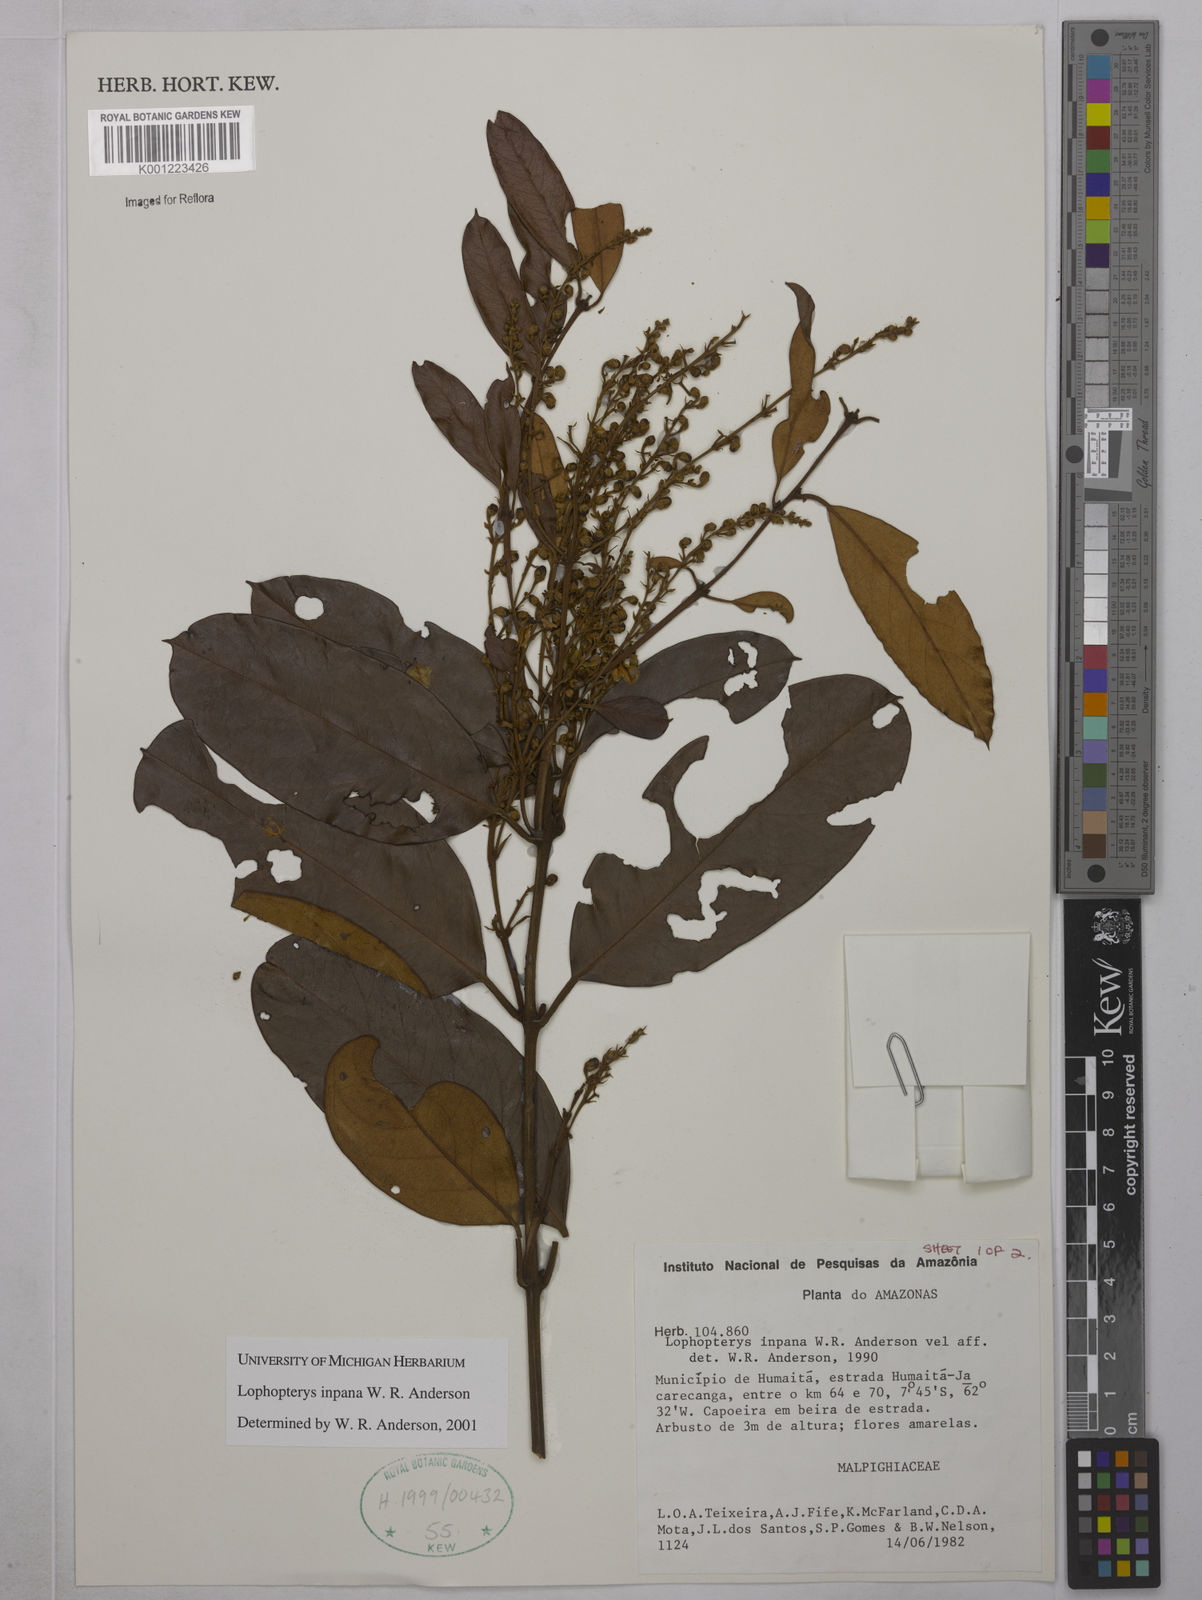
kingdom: Plantae
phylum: Tracheophyta
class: Magnoliopsida
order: Malpighiales
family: Malpighiaceae
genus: Lophopterys
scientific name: Lophopterys inpana
